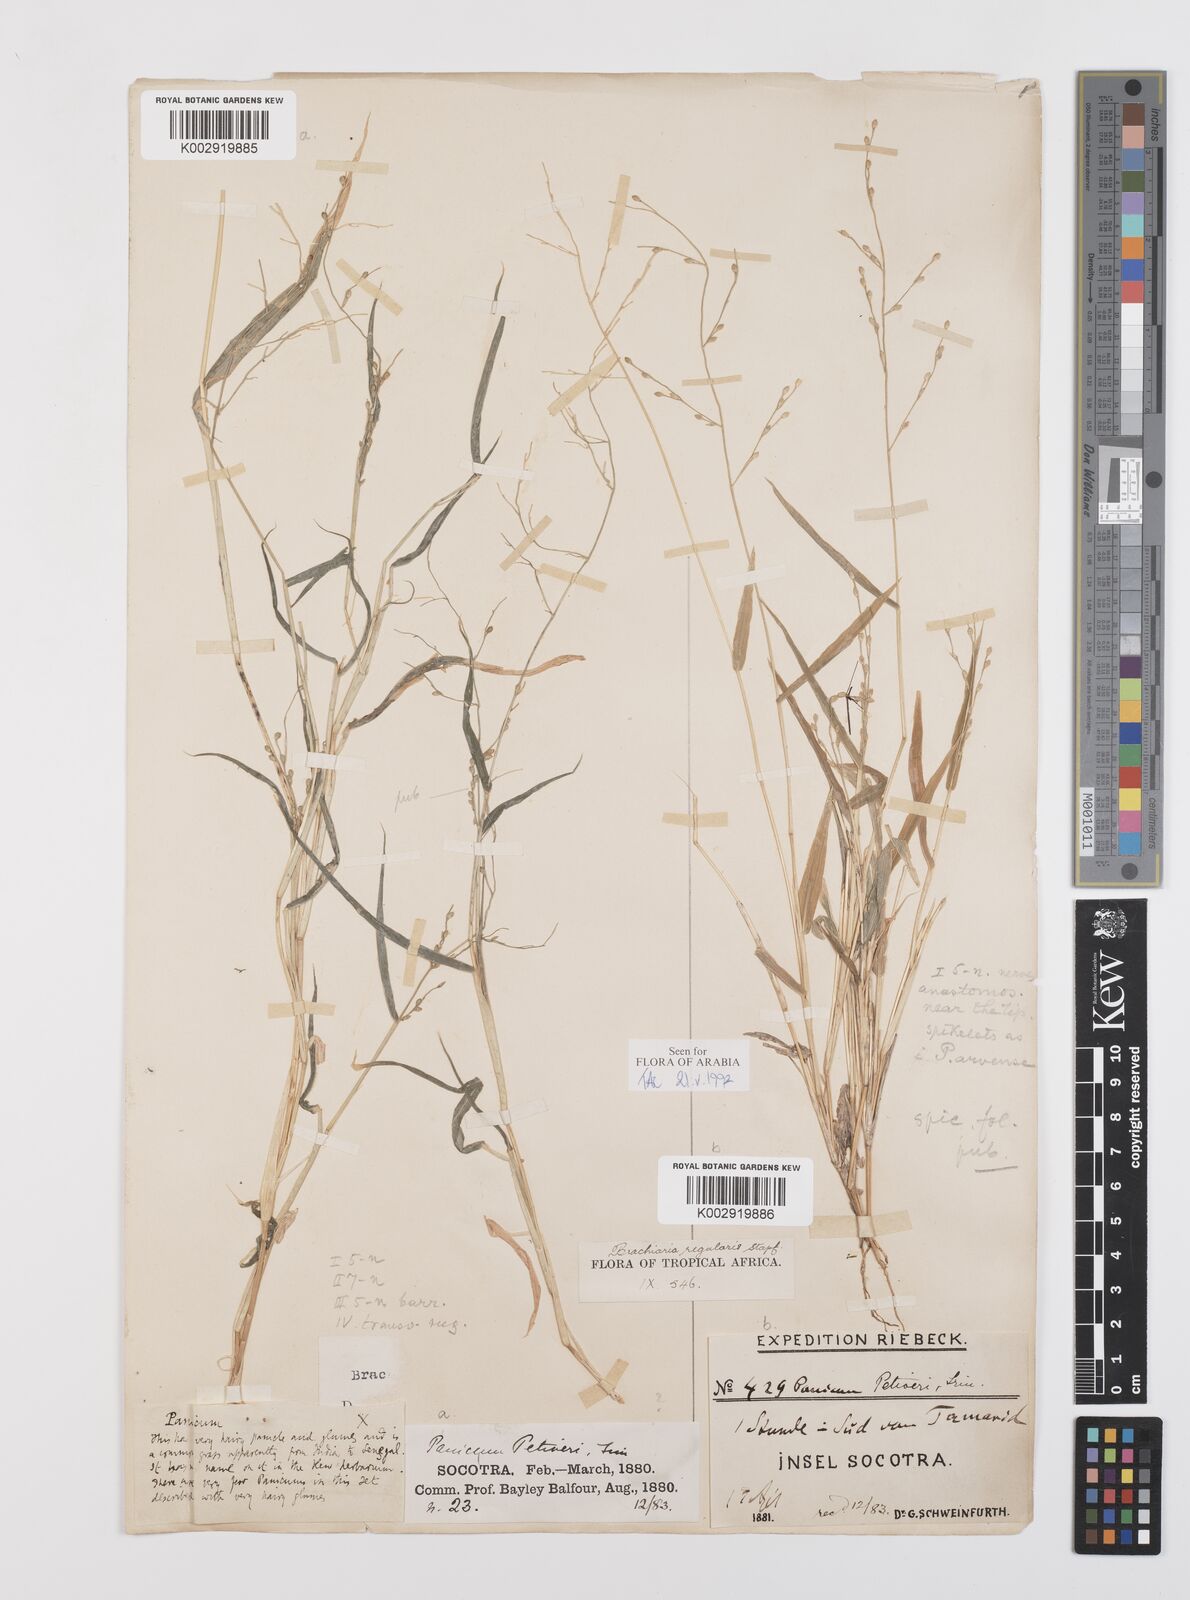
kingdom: Plantae
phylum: Tracheophyta
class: Liliopsida
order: Poales
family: Poaceae
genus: Urochloa
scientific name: Urochloa deflexa
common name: Guinea millet
